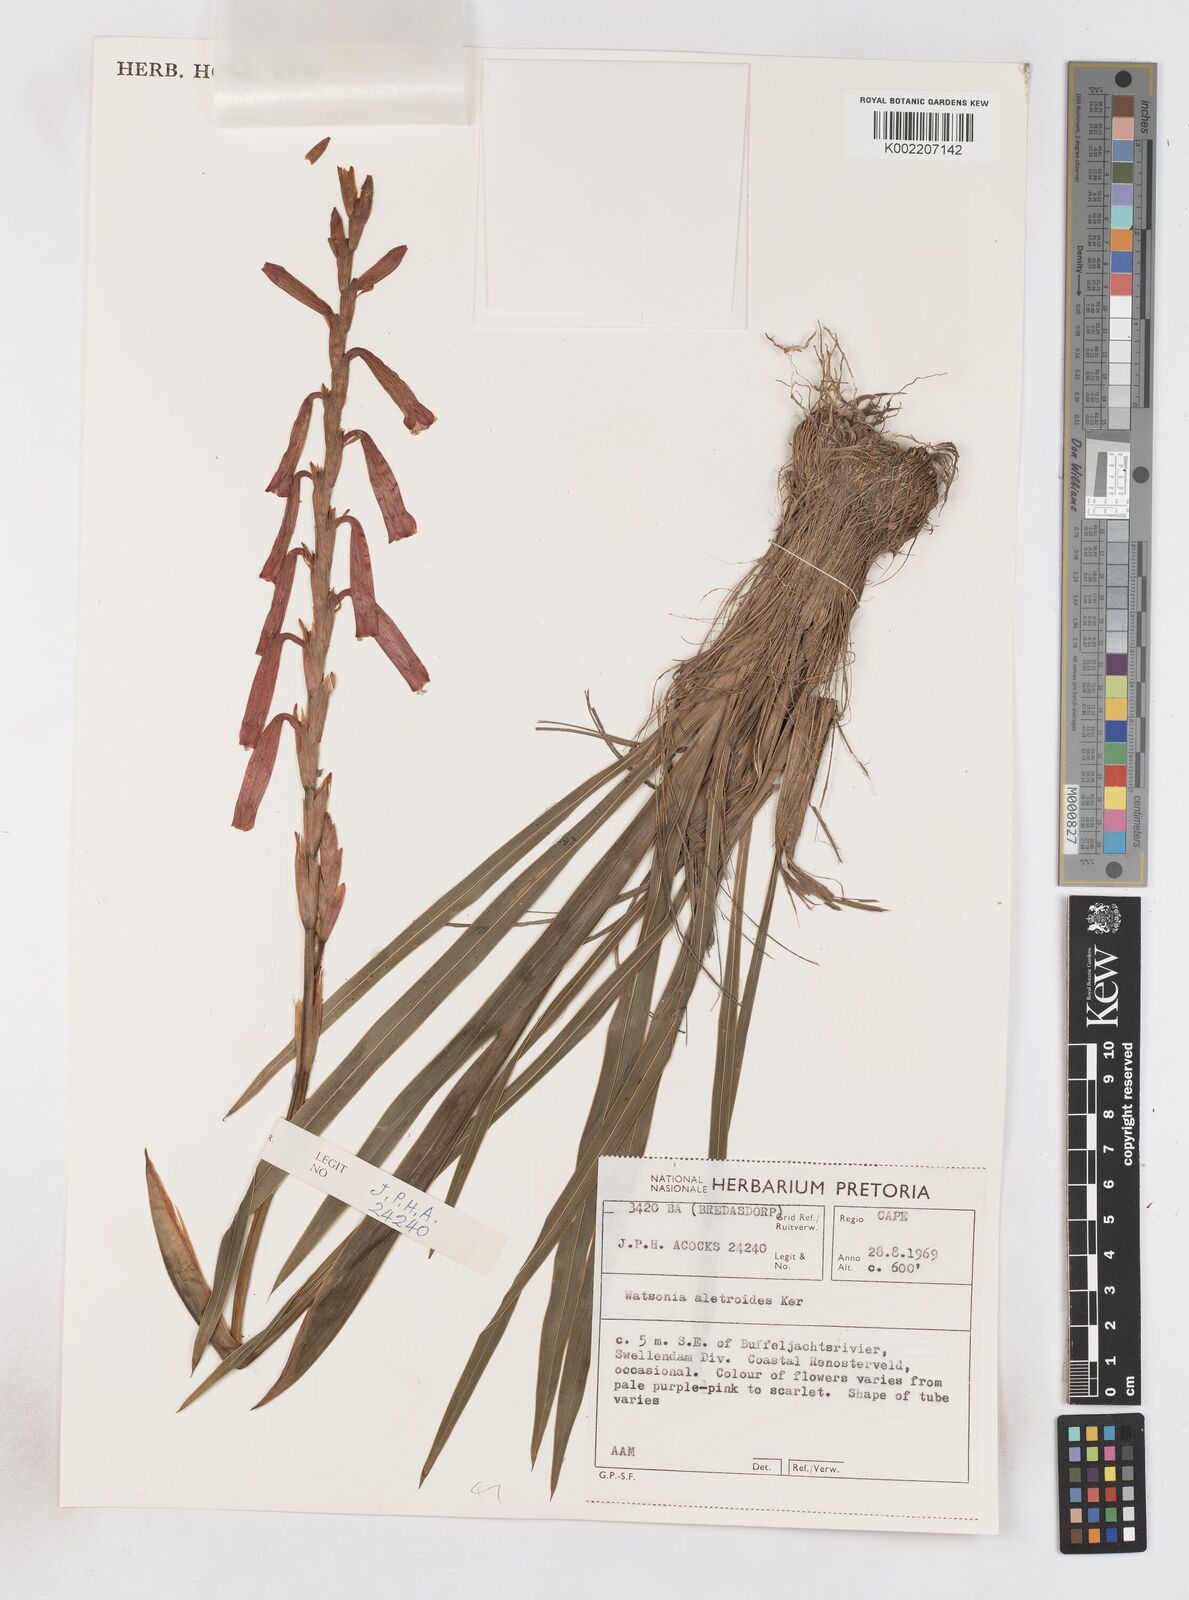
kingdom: Plantae
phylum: Tracheophyta
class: Liliopsida
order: Asparagales
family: Iridaceae
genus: Watsonia
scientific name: Watsonia aletroides
